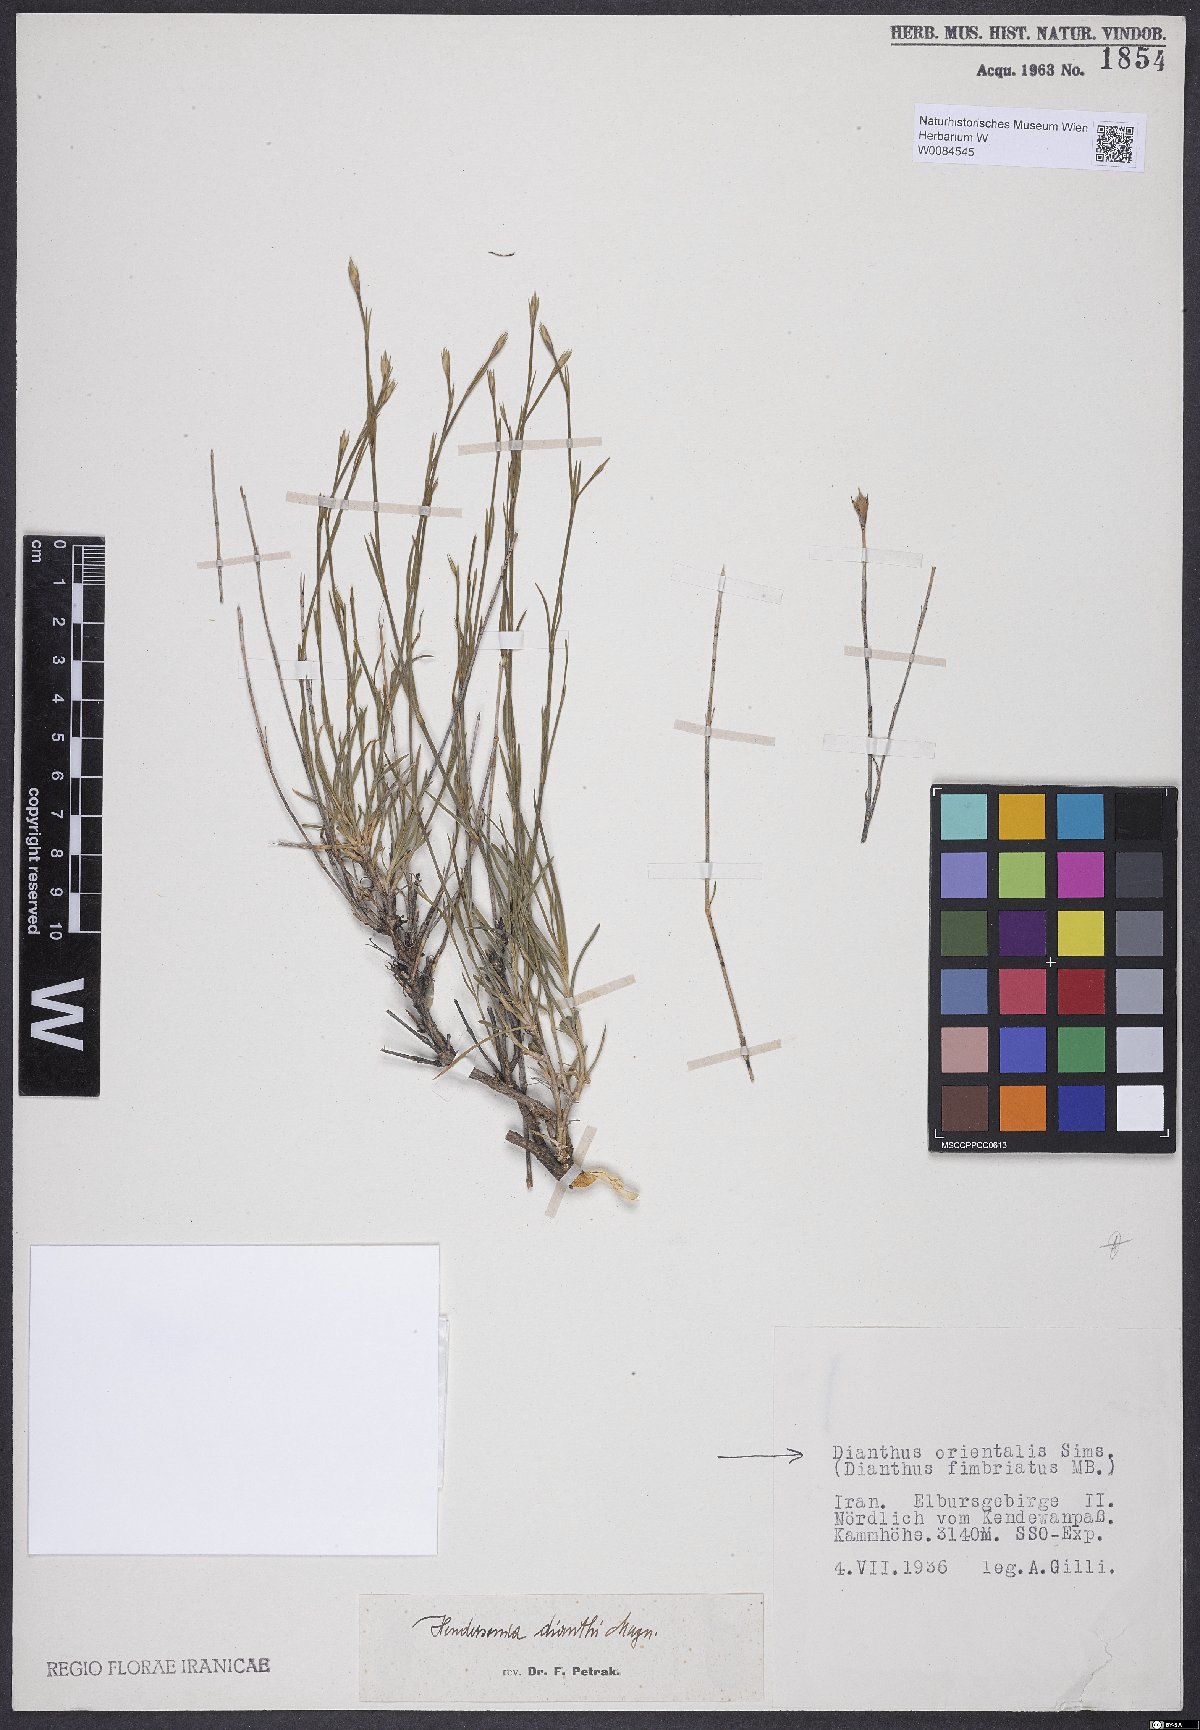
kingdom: Plantae
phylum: Tracheophyta
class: Magnoliopsida
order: Caryophyllales
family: Caryophyllaceae
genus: Dianthus
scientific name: Dianthus orientalis
